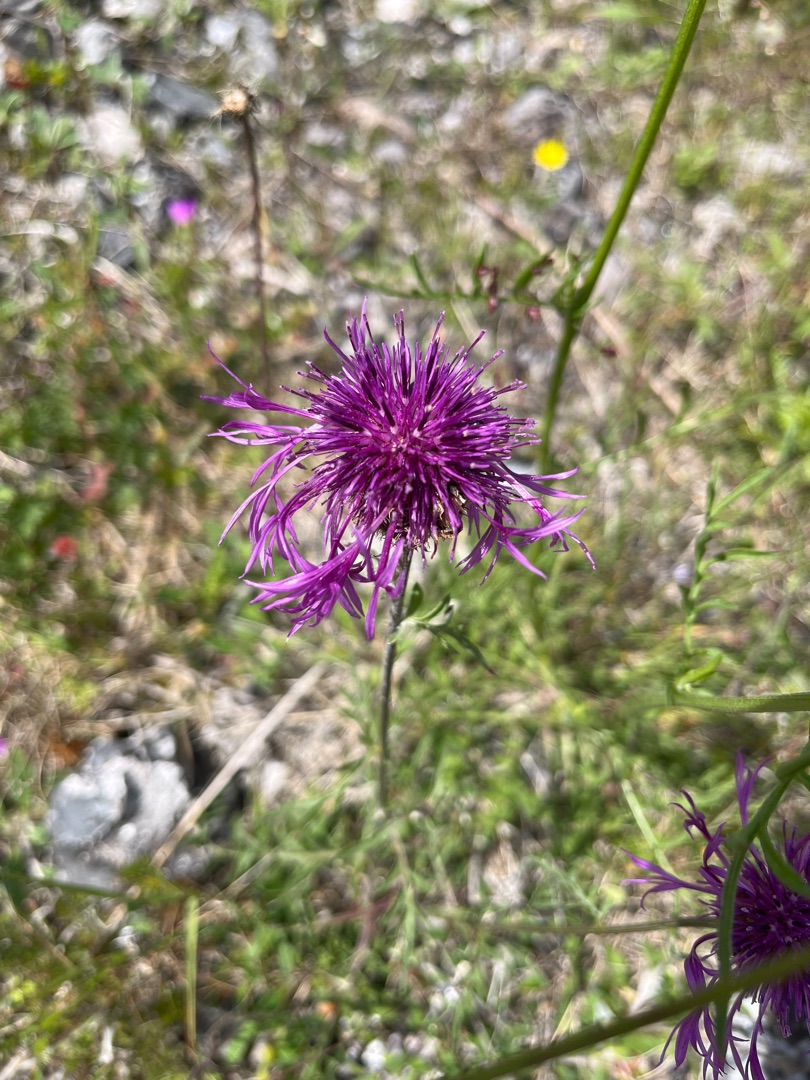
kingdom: Plantae
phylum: Tracheophyta
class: Magnoliopsida
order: Asterales
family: Asteraceae
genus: Centaurea
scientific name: Centaurea scabiosa
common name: Stor knopurt
